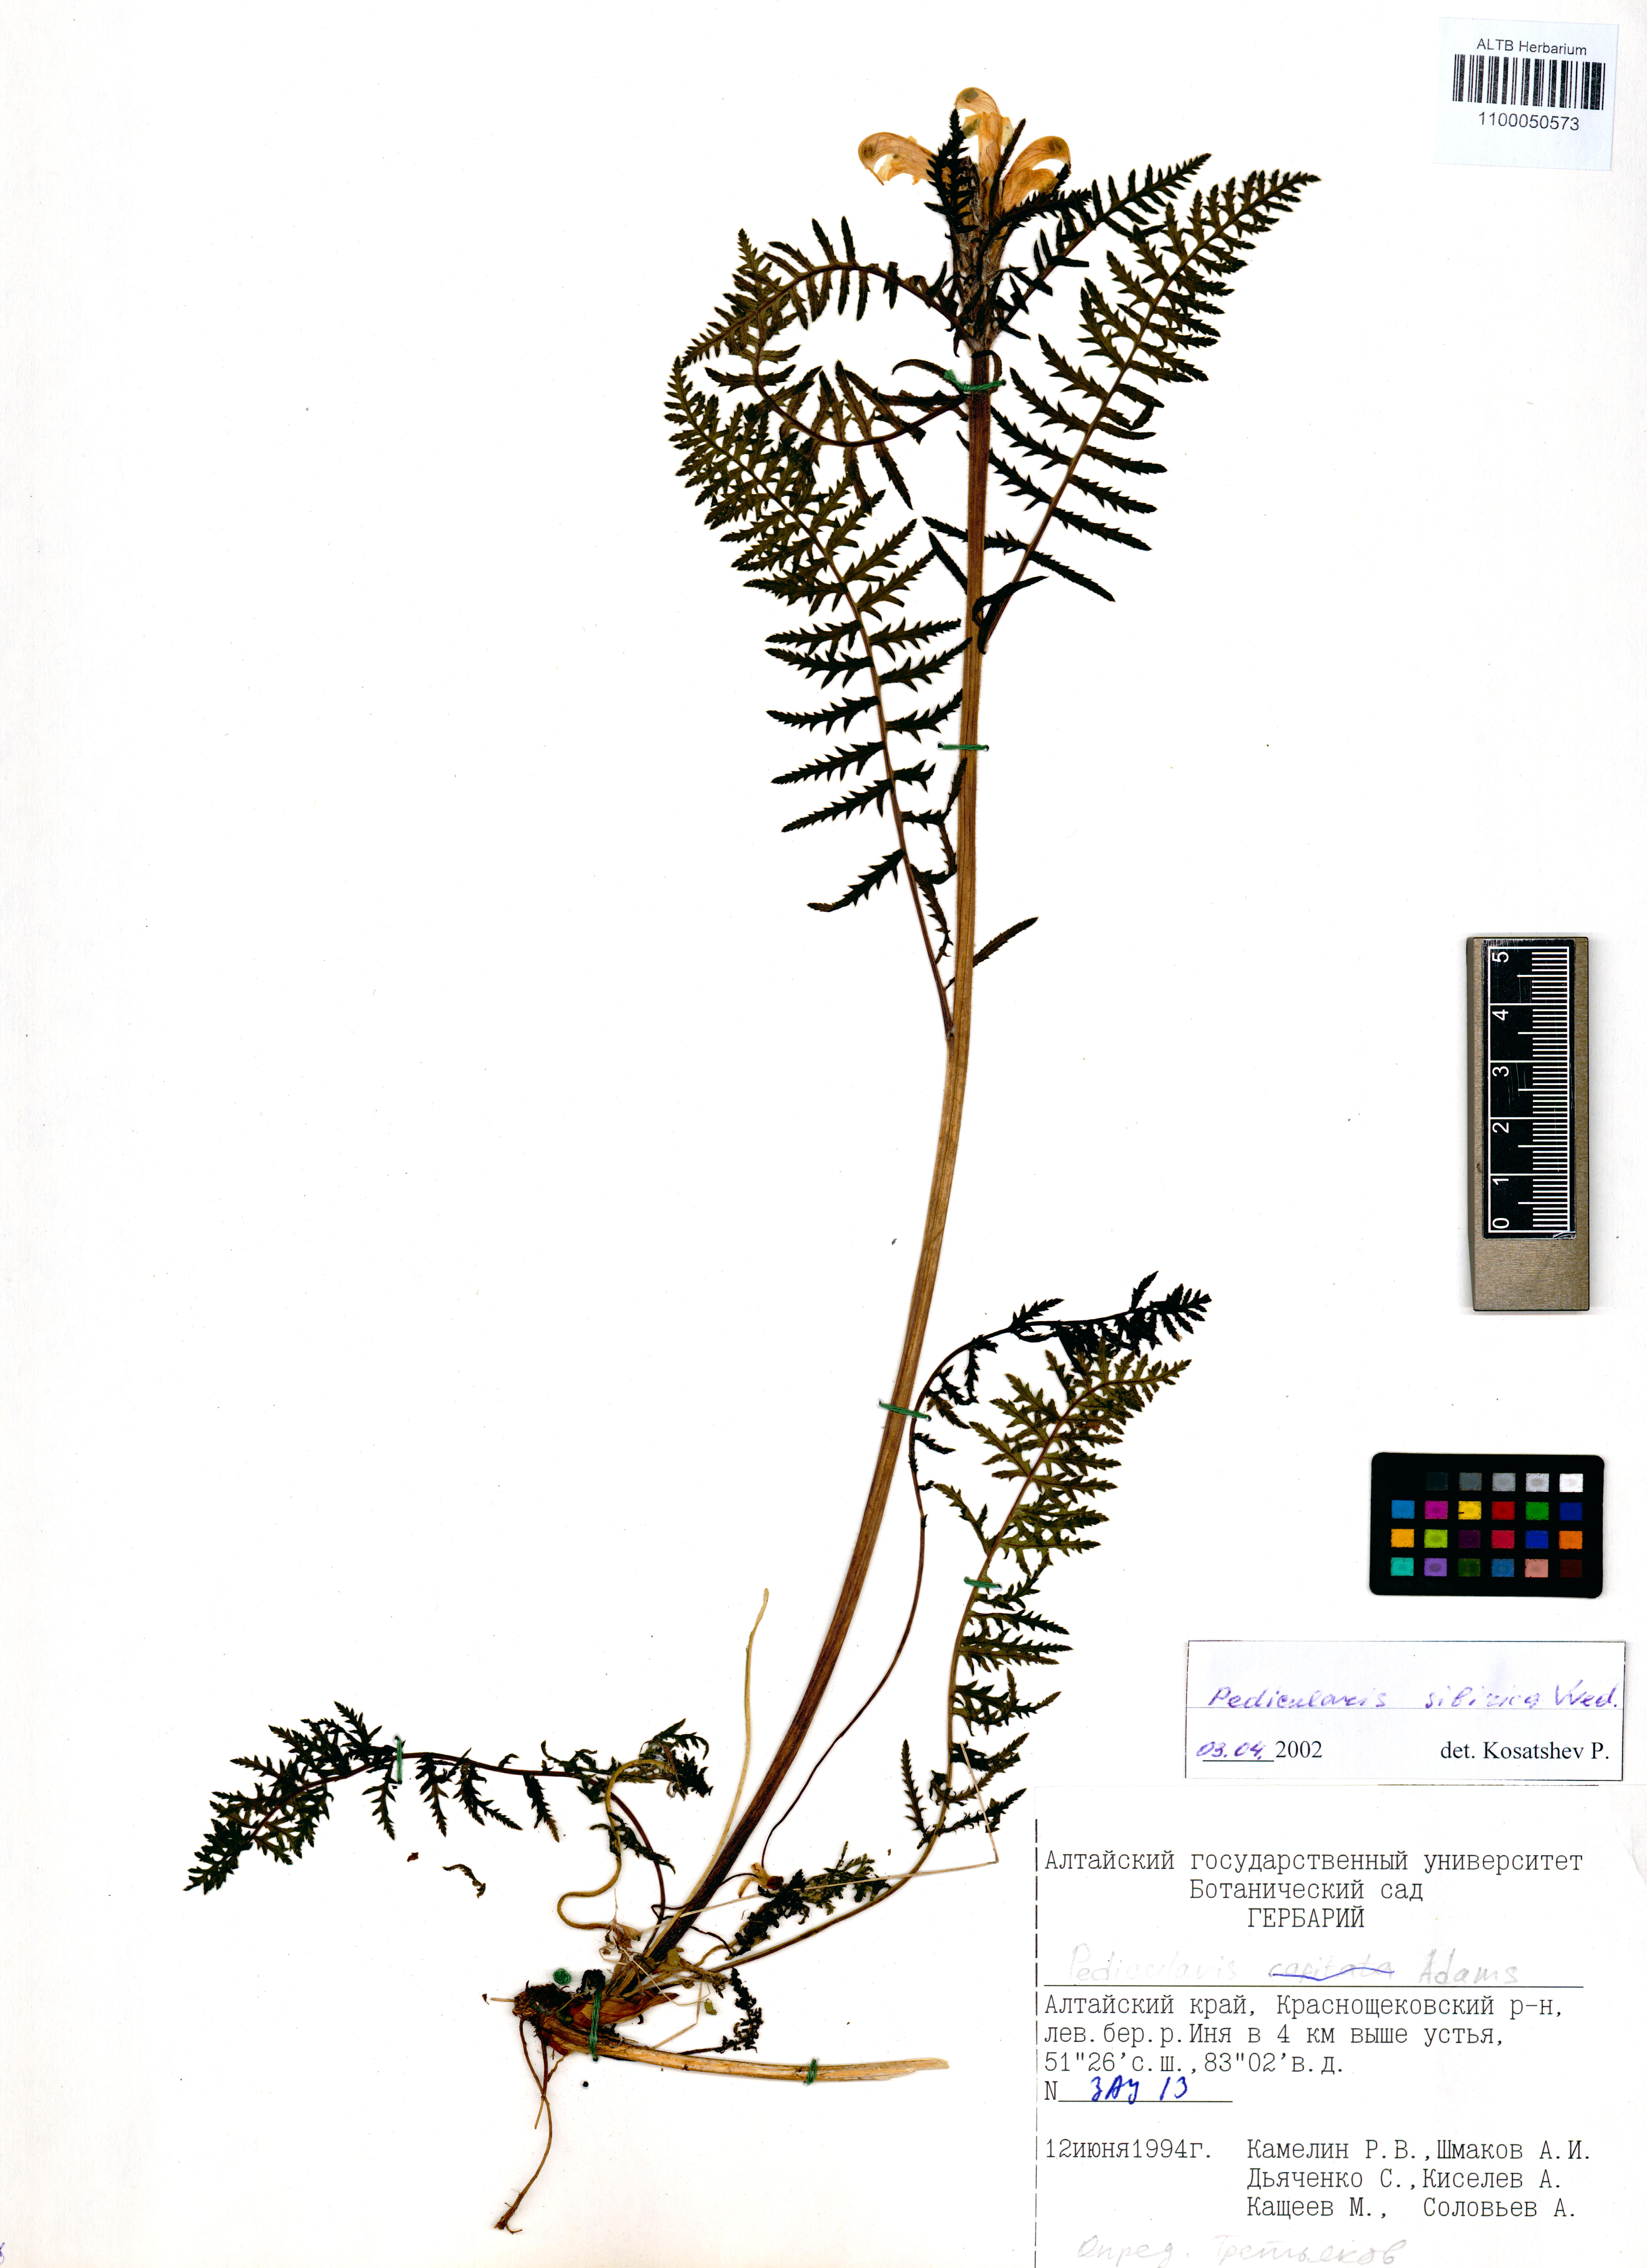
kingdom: Plantae
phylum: Tracheophyta
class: Magnoliopsida
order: Lamiales
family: Orobanchaceae
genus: Pedicularis
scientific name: Pedicularis sibirica
